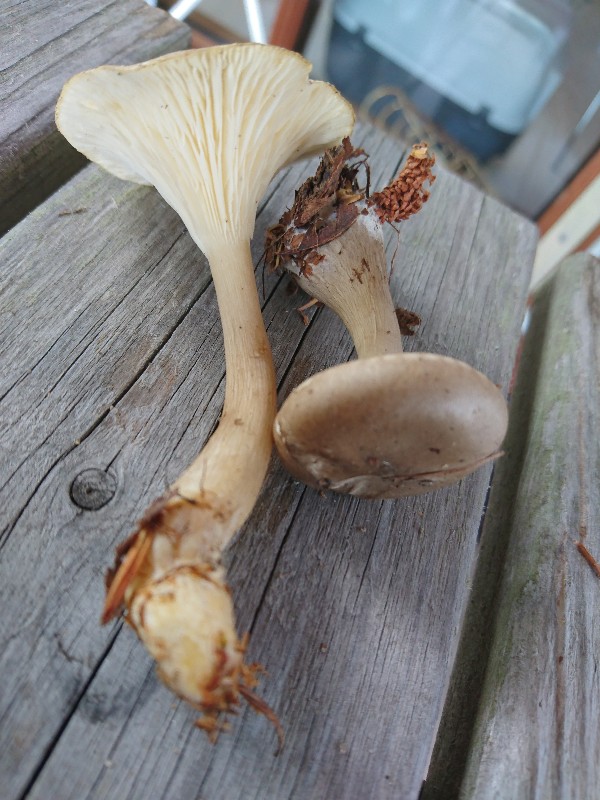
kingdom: Fungi
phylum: Basidiomycota
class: Agaricomycetes
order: Agaricales
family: Hygrophoraceae
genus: Ampulloclitocybe
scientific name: Ampulloclitocybe clavipes
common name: køllefod
